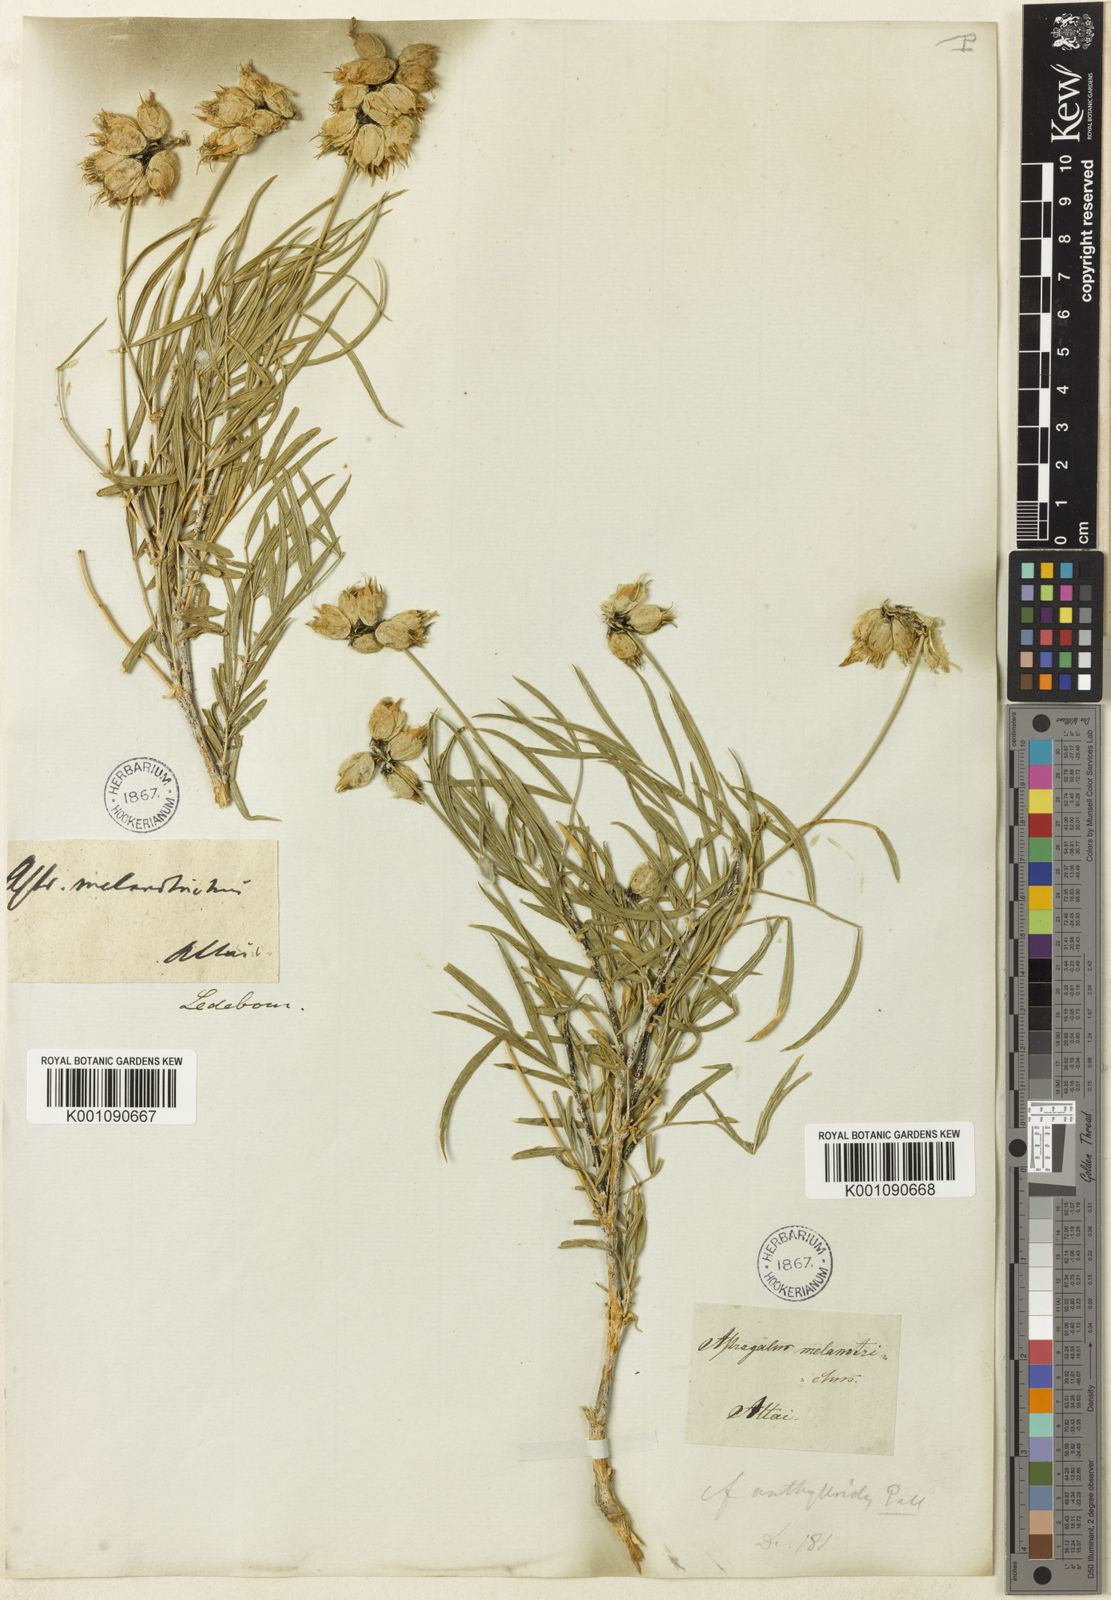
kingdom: Plantae
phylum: Tracheophyta
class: Magnoliopsida
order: Fabales
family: Fabaceae
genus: Astragalus
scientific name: Astragalus
